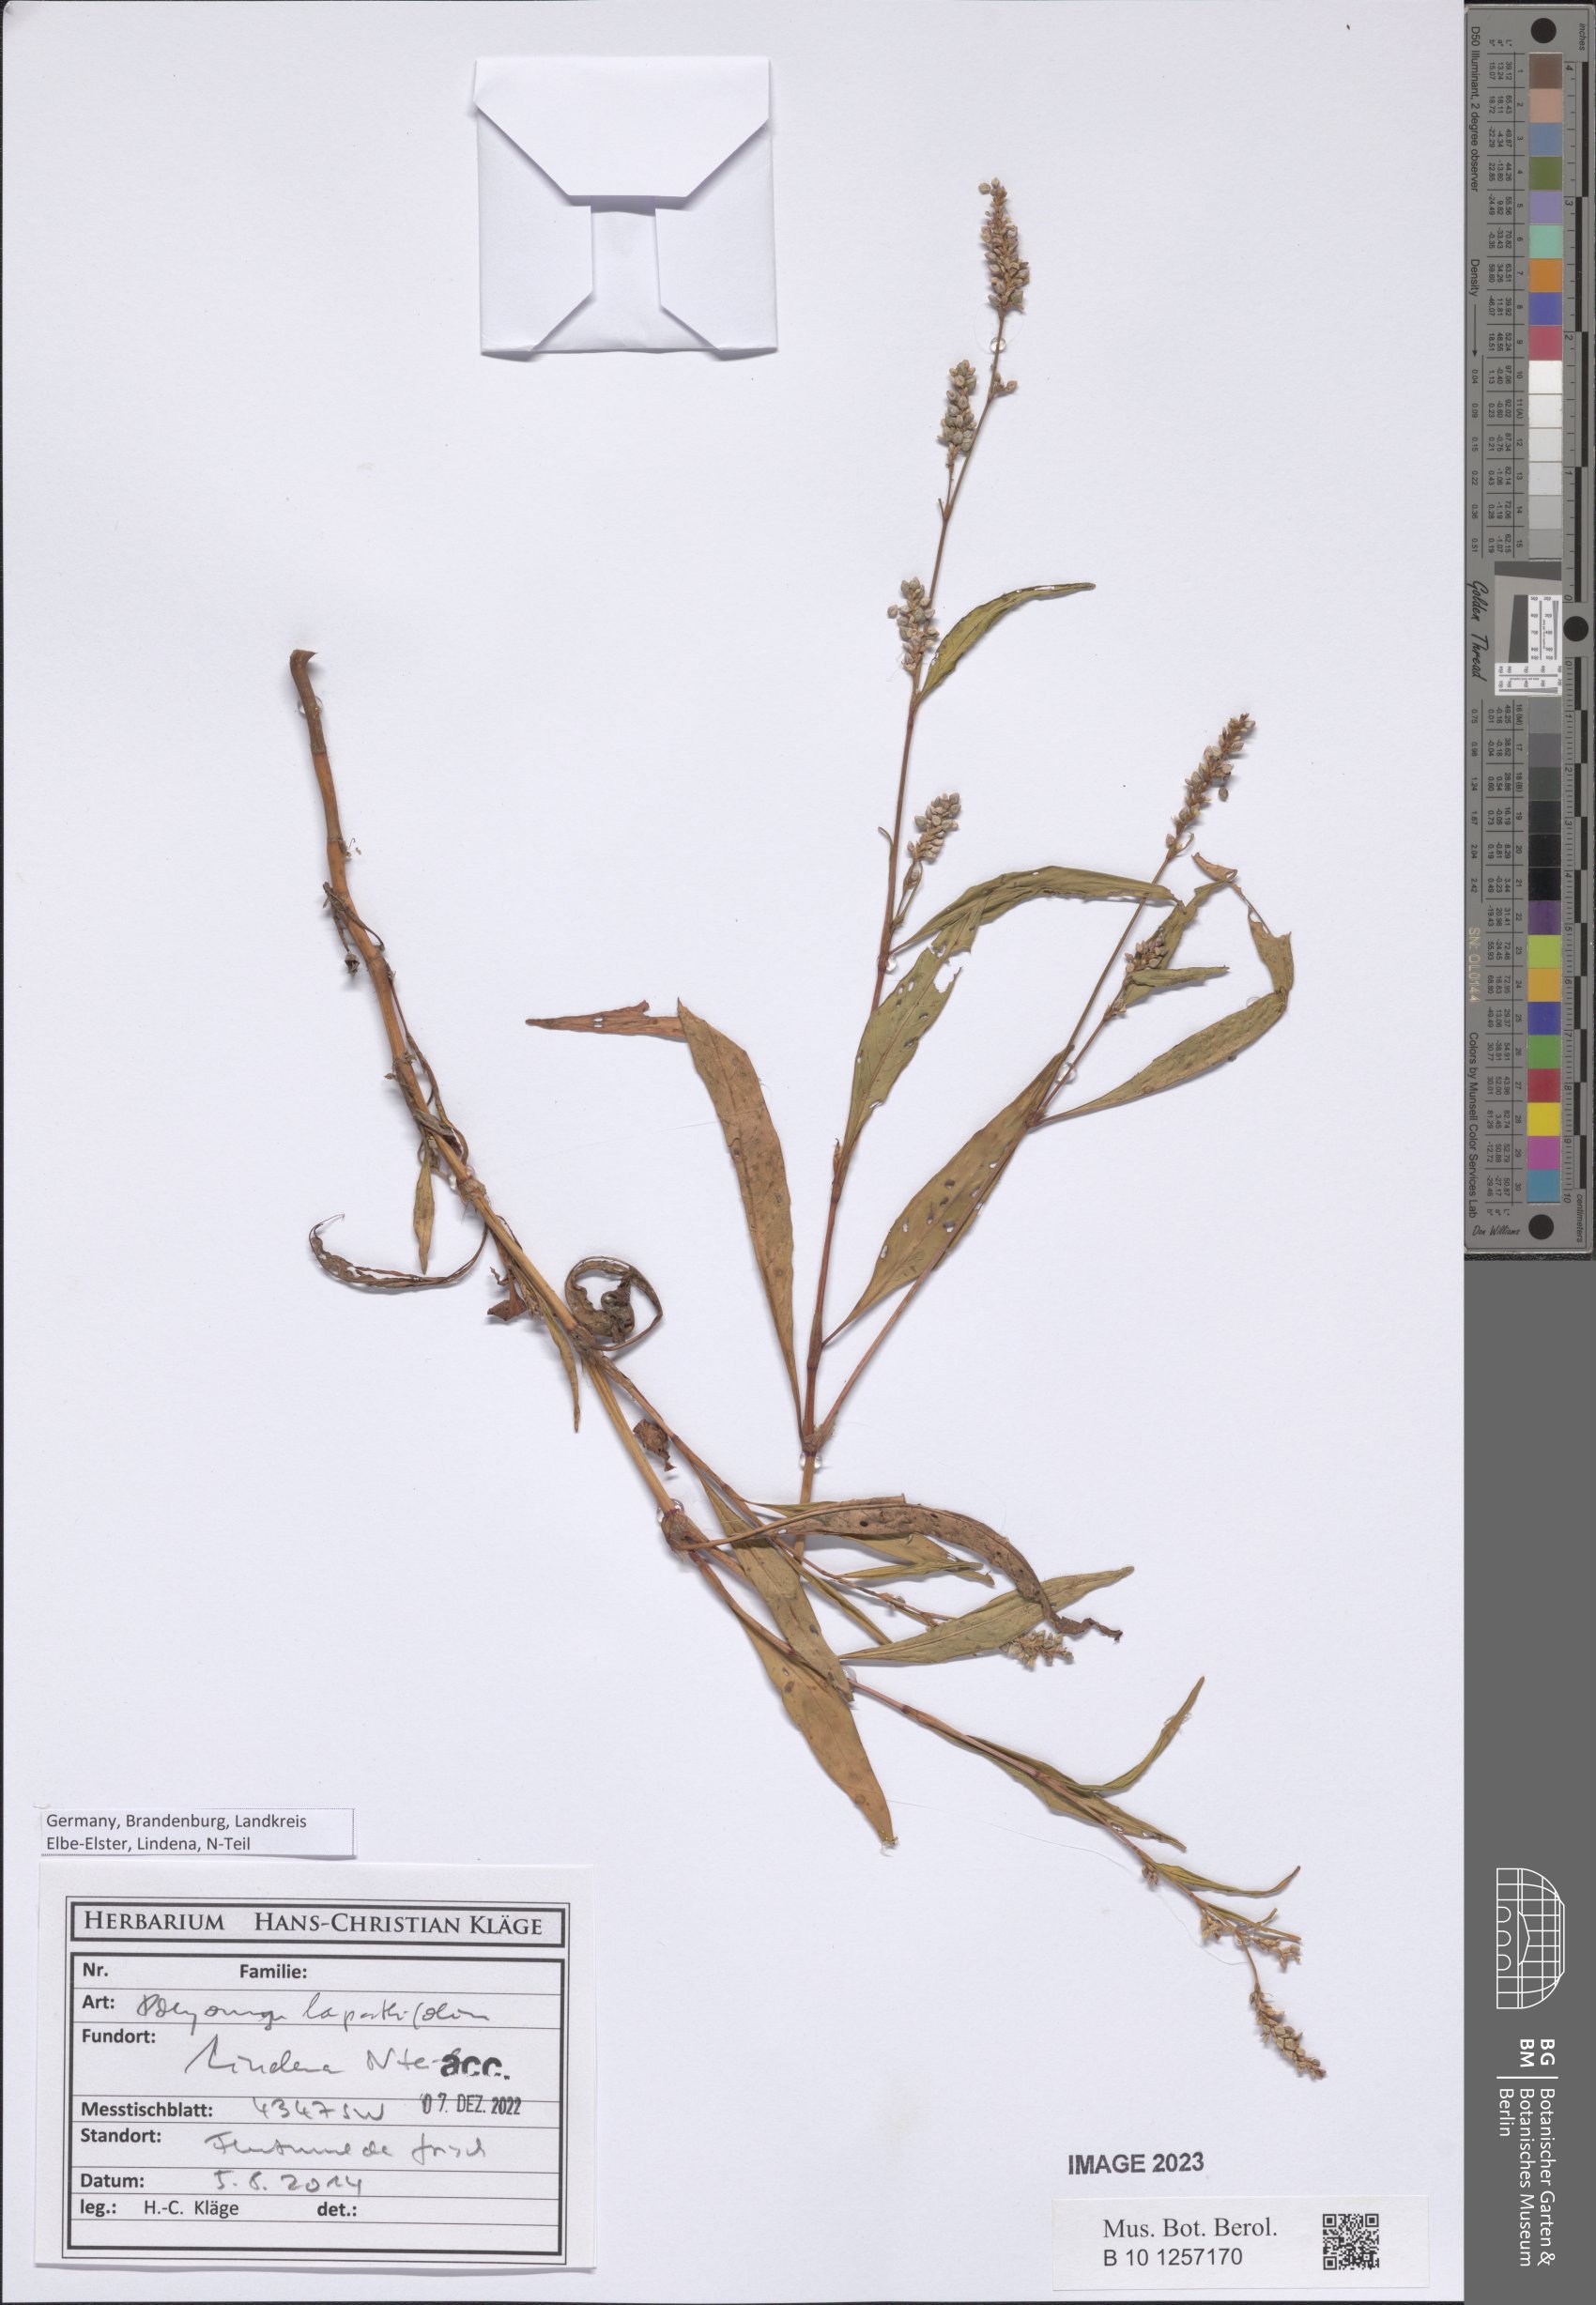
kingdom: Plantae
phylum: Tracheophyta
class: Magnoliopsida
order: Caryophyllales
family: Polygonaceae
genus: Persicaria
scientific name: Persicaria lapathifolia
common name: Curlytop knotweed
